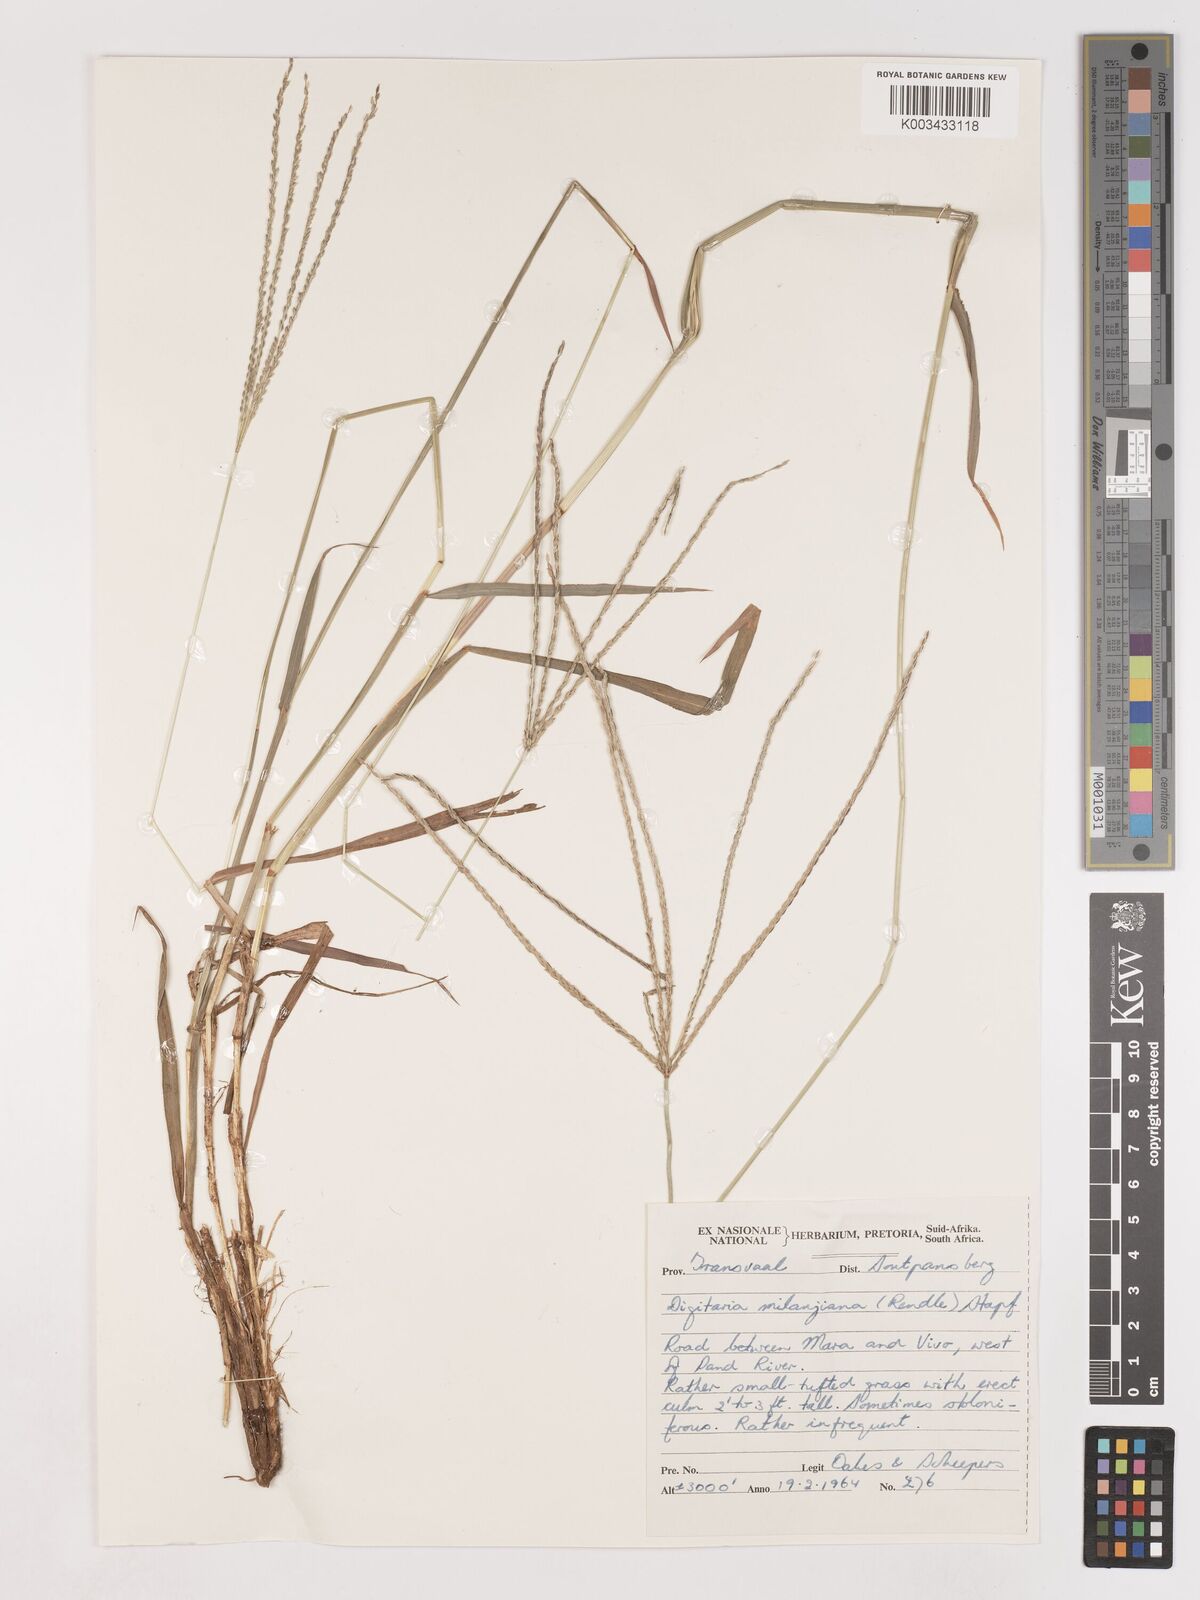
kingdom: Plantae
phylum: Tracheophyta
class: Liliopsida
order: Poales
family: Poaceae
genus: Digitaria
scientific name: Digitaria milanjiana
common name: Madagascar crabgrass
